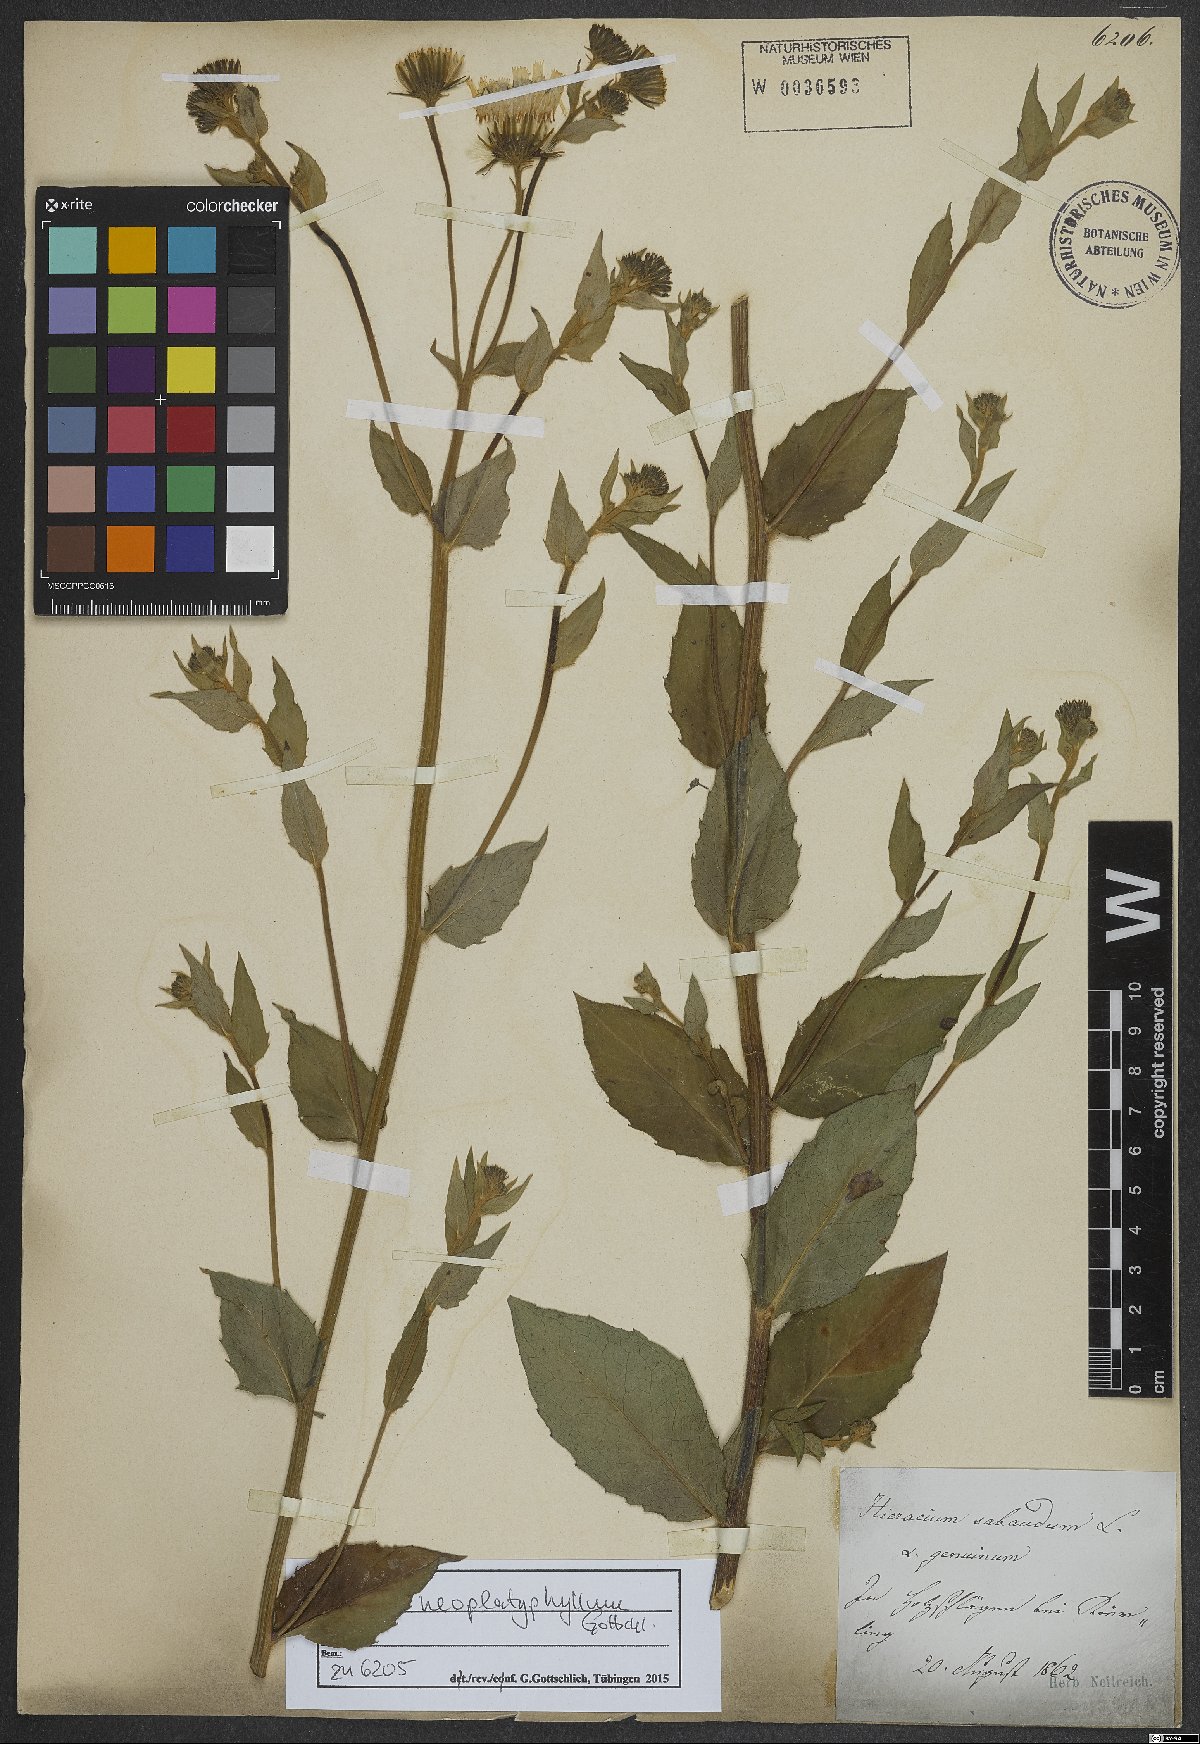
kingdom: Plantae
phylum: Tracheophyta
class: Magnoliopsida
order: Asterales
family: Asteraceae
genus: Hieracium
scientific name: Hieracium neoplatyphyllum
